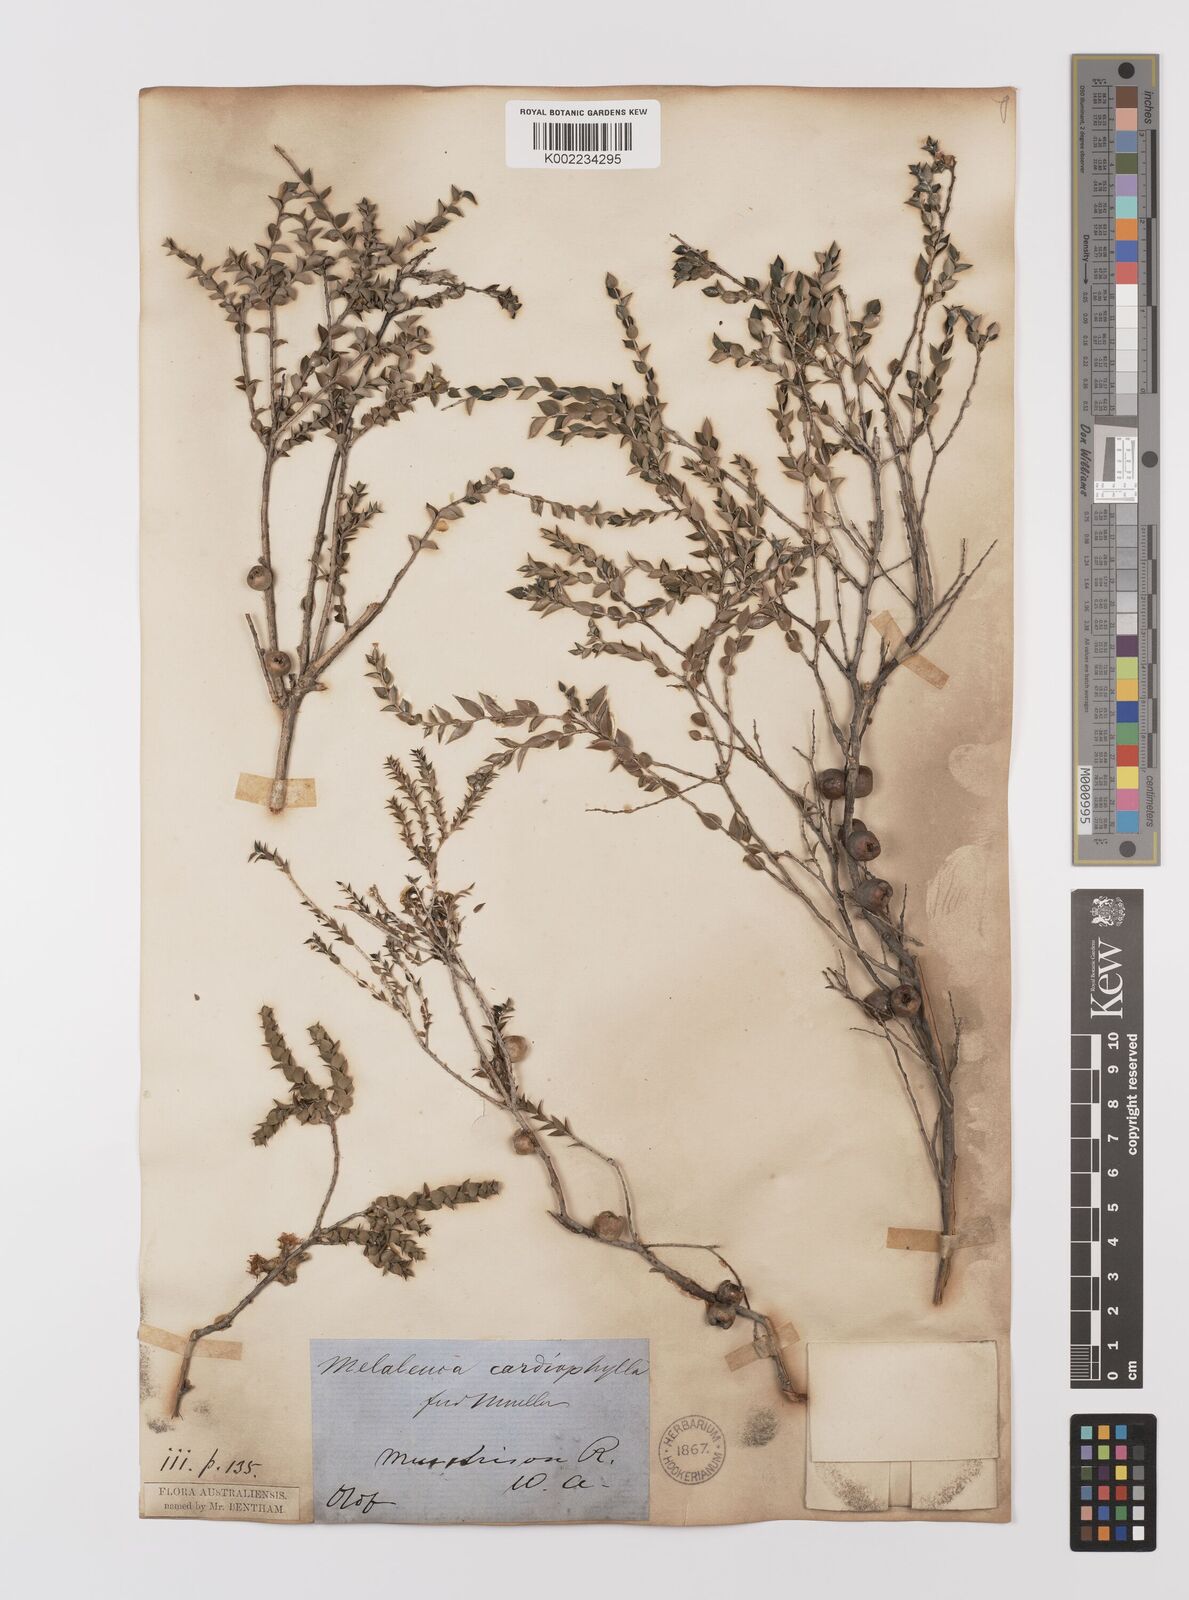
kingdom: Plantae
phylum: Tracheophyta
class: Magnoliopsida
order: Myrtales
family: Myrtaceae
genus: Melaleuca
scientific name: Melaleuca cardiophylla
